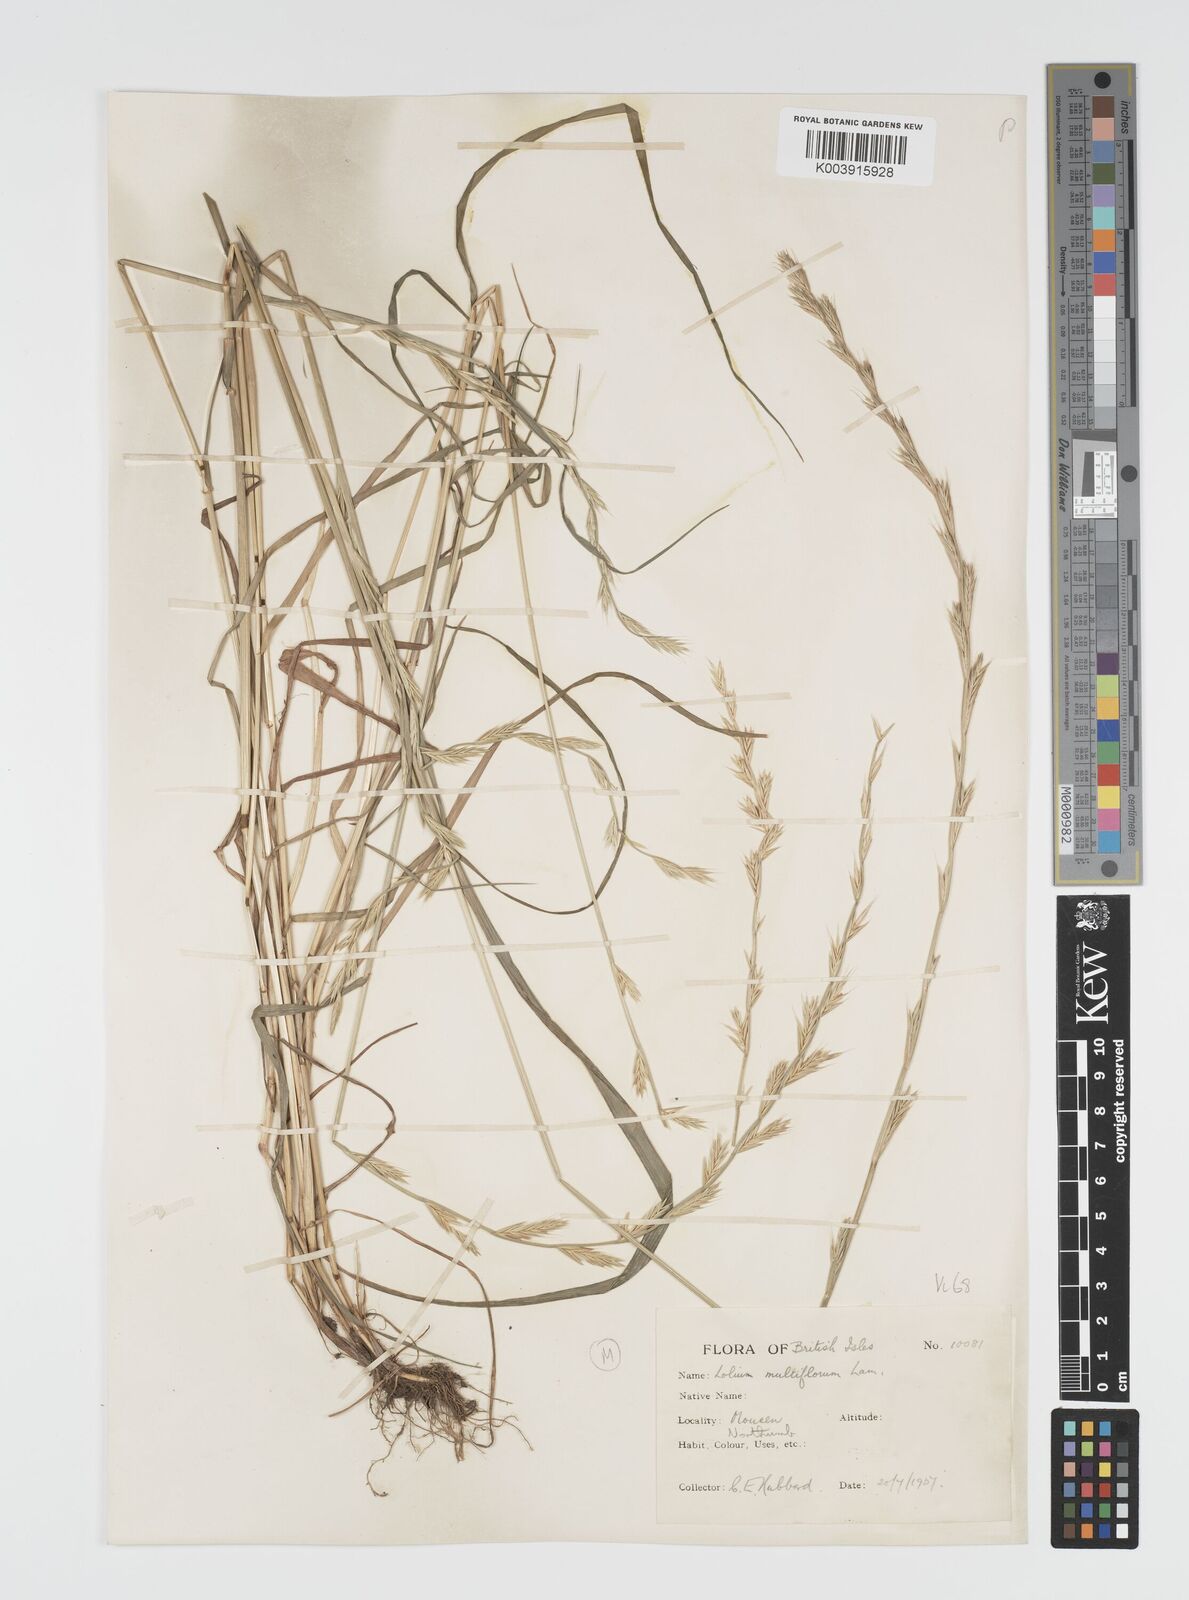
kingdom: Plantae
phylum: Tracheophyta
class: Liliopsida
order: Poales
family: Poaceae
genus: Lolium
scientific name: Lolium multiflorum
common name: Annual ryegrass
